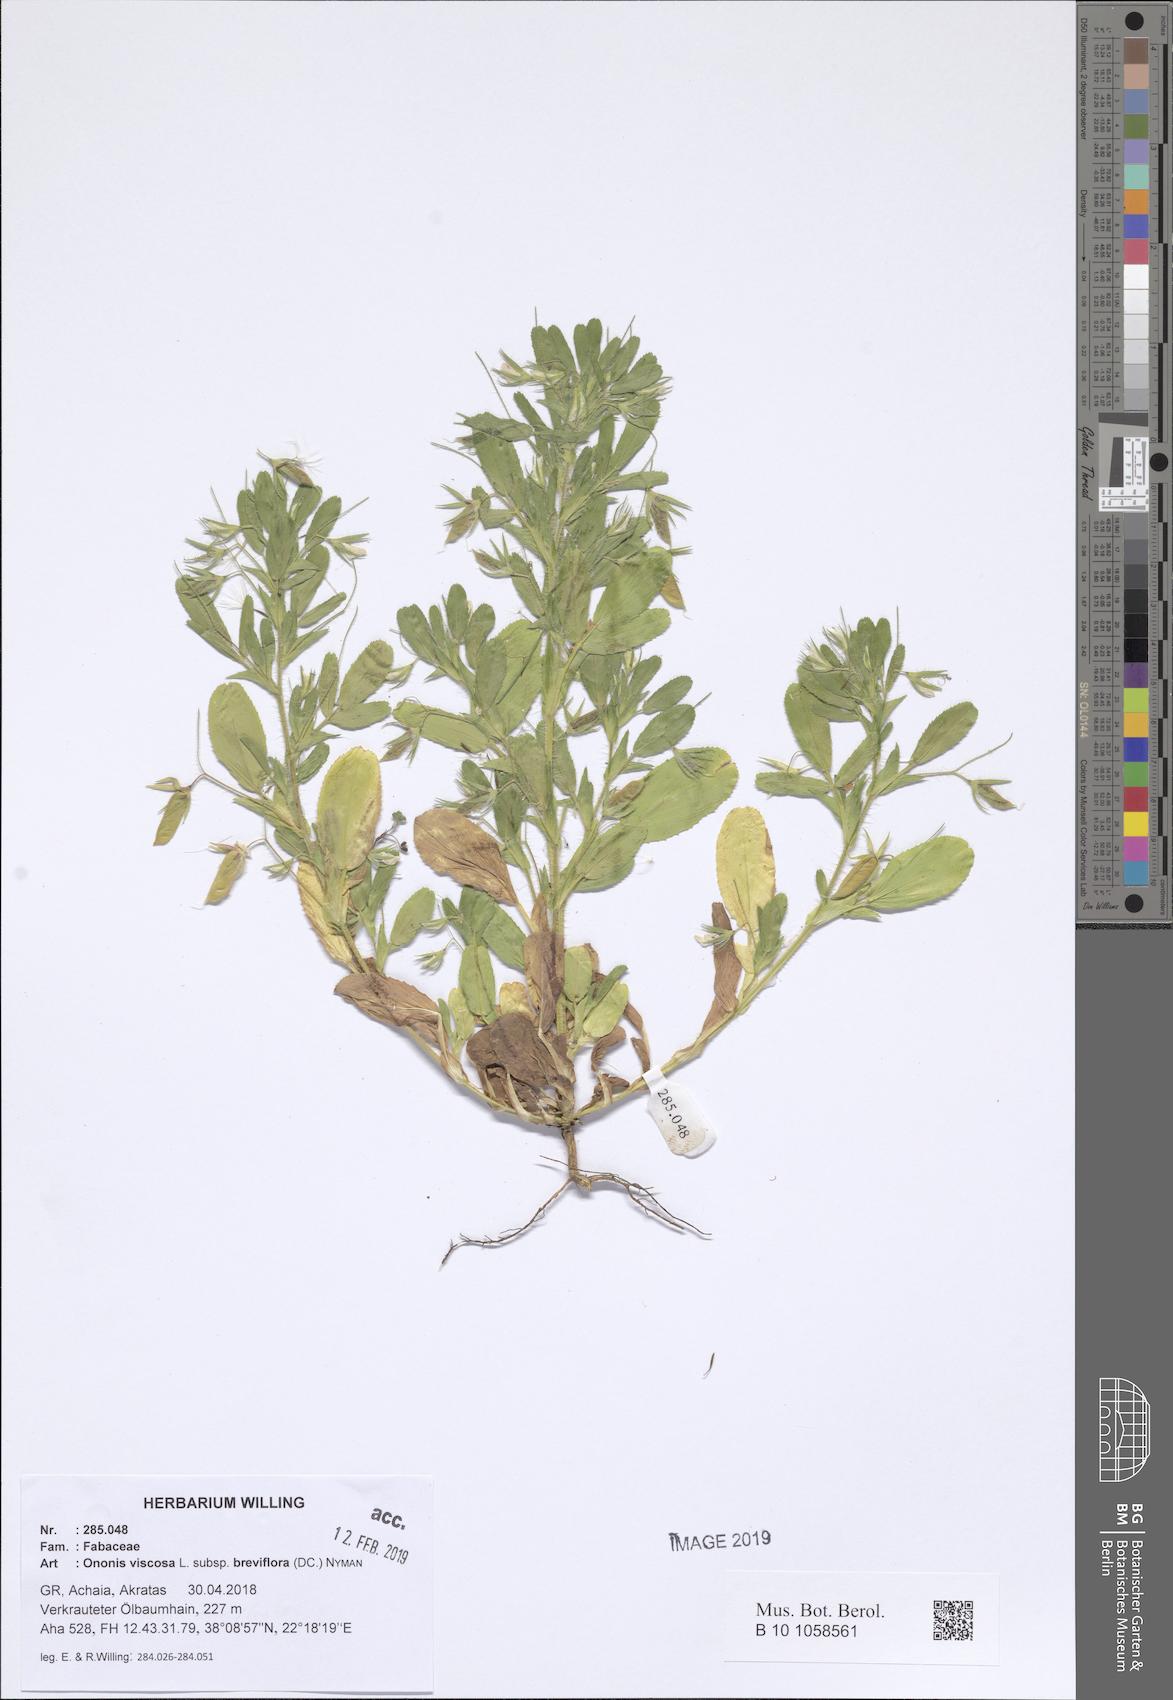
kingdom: Plantae
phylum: Tracheophyta
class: Magnoliopsida
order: Fabales
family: Fabaceae
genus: Ononis
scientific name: Ononis viscosa
